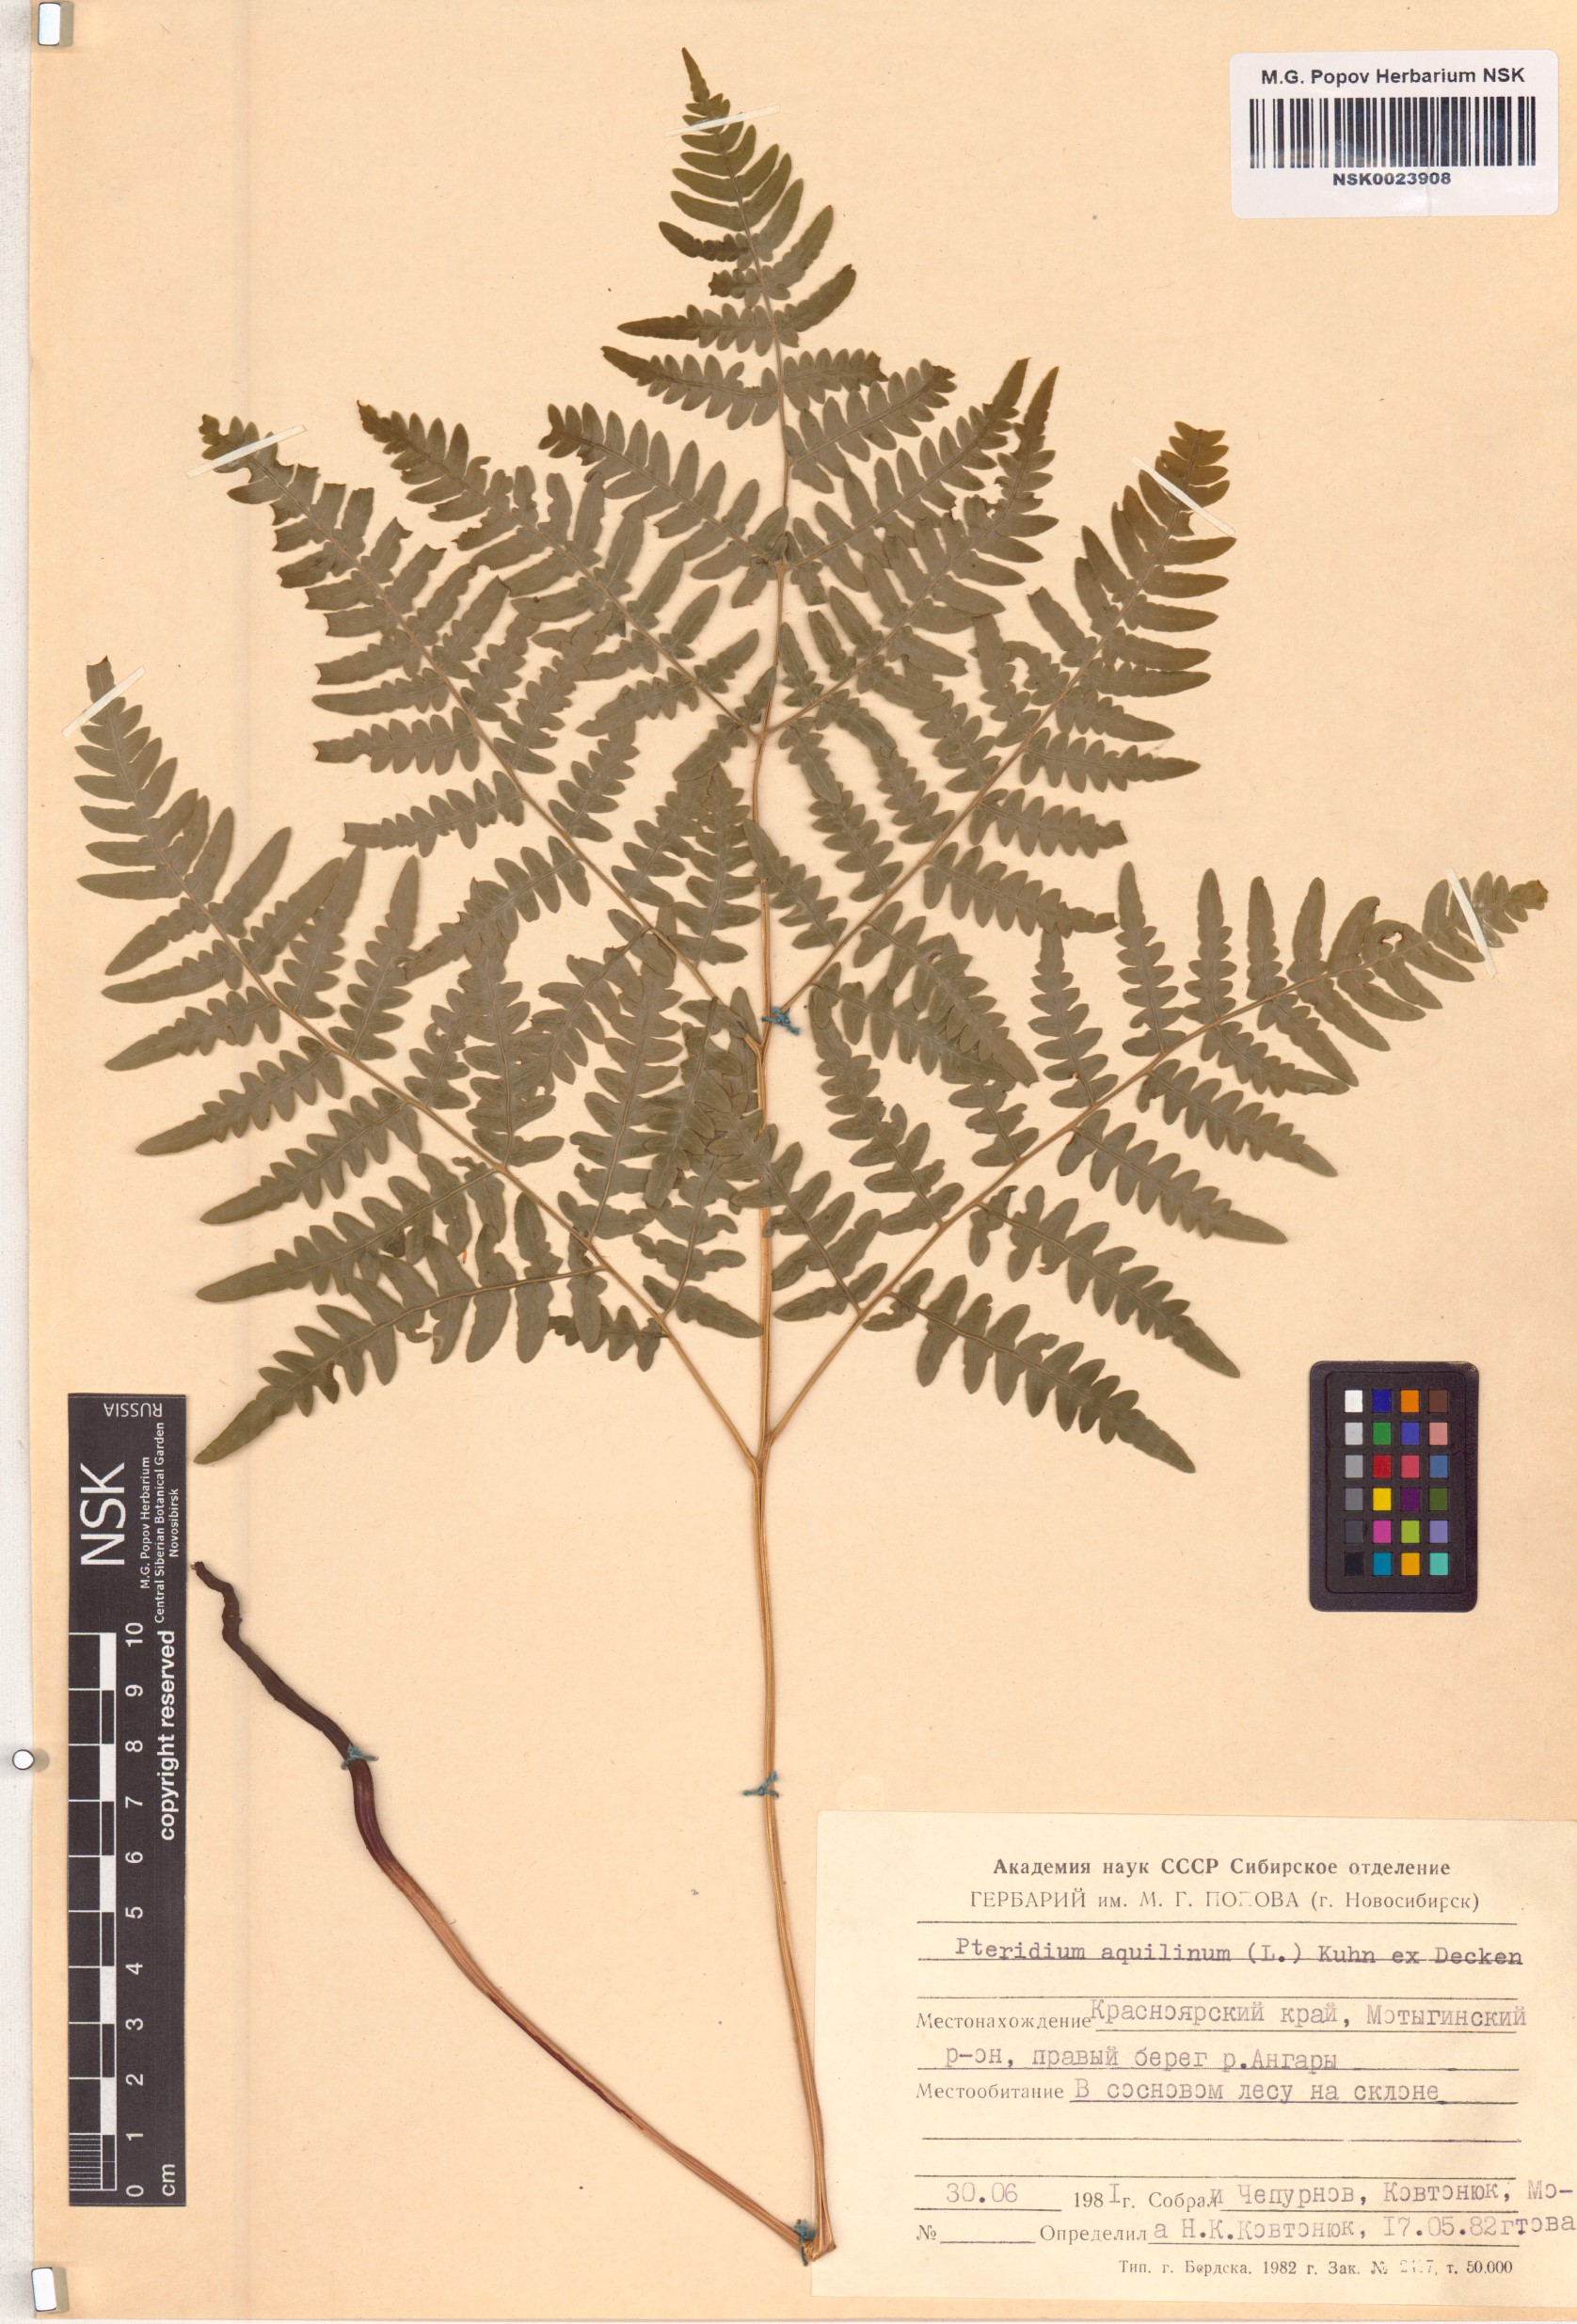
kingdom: Plantae
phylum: Tracheophyta
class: Polypodiopsida
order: Polypodiales
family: Dennstaedtiaceae
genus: Pteridium
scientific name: Pteridium aquilinum
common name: Bracken
